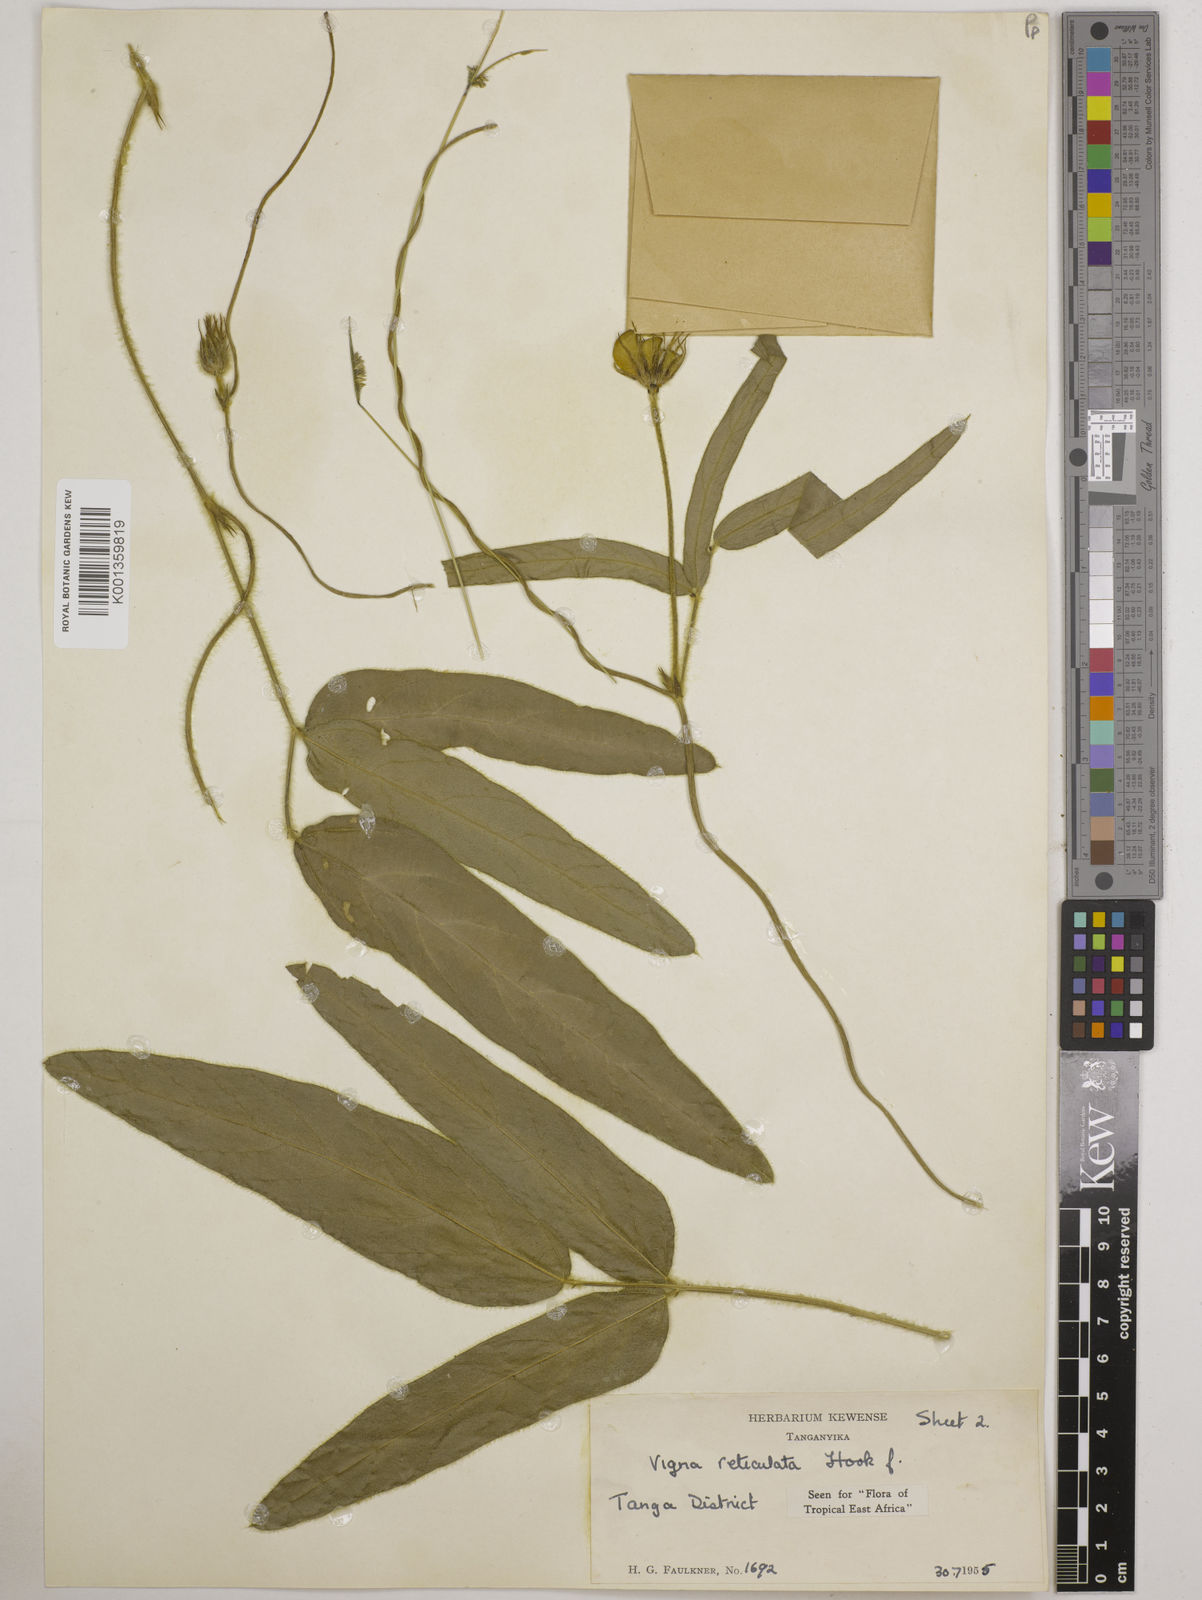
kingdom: Plantae
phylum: Tracheophyta
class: Magnoliopsida
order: Fabales
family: Fabaceae
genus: Vigna
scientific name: Vigna reticulata
